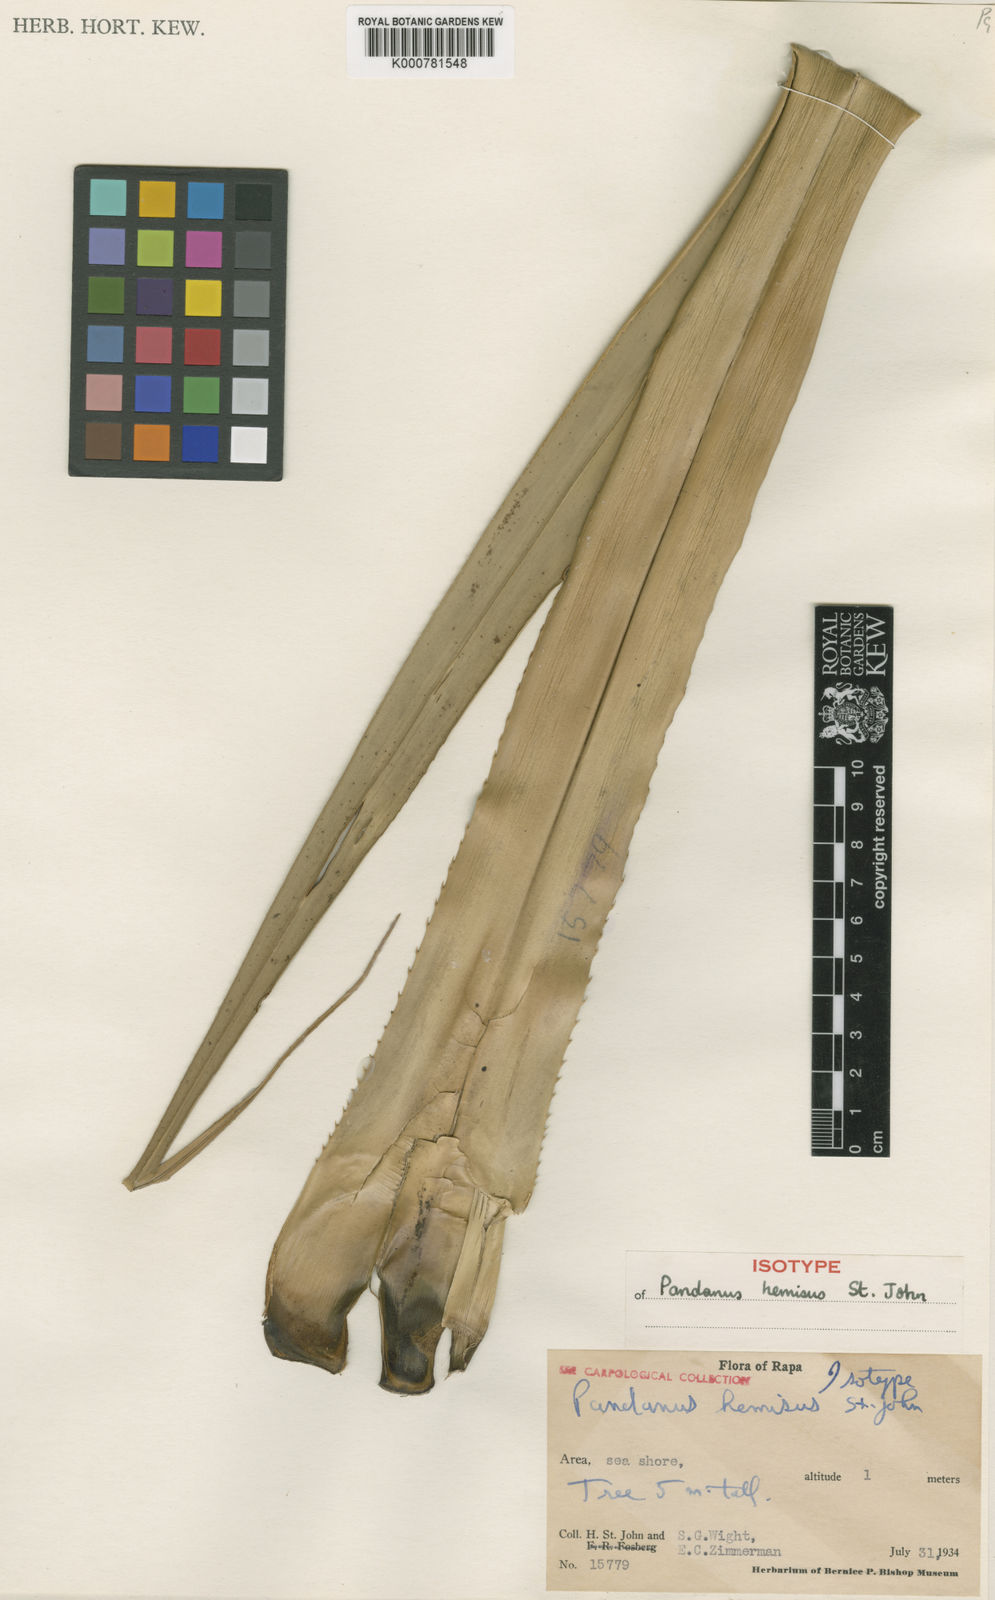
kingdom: Plantae
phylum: Tracheophyta
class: Liliopsida
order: Pandanales
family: Pandanaceae
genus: Pandanus
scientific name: Pandanus
